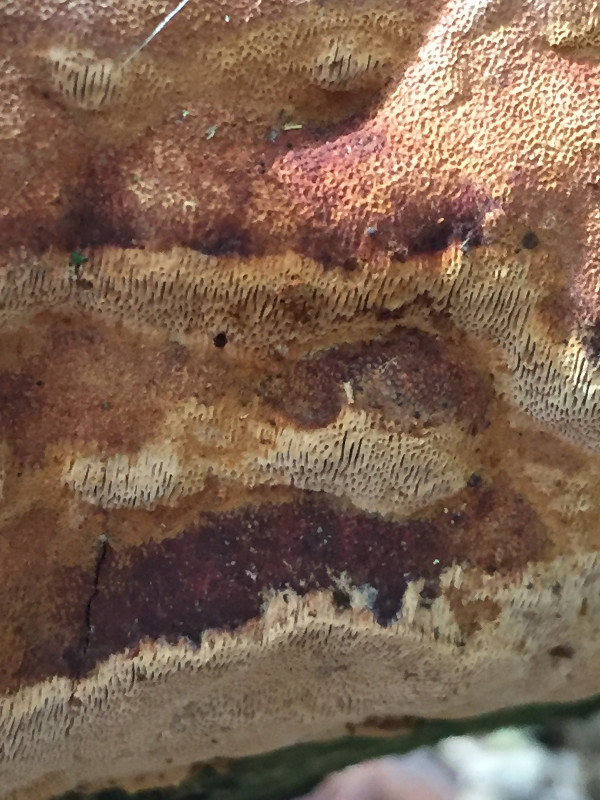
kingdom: Fungi
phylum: Basidiomycota
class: Agaricomycetes
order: Hymenochaetales
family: Hymenochaetaceae
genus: Fuscoporia
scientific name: Fuscoporia ferrea
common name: skorpe-ildporesvamp
